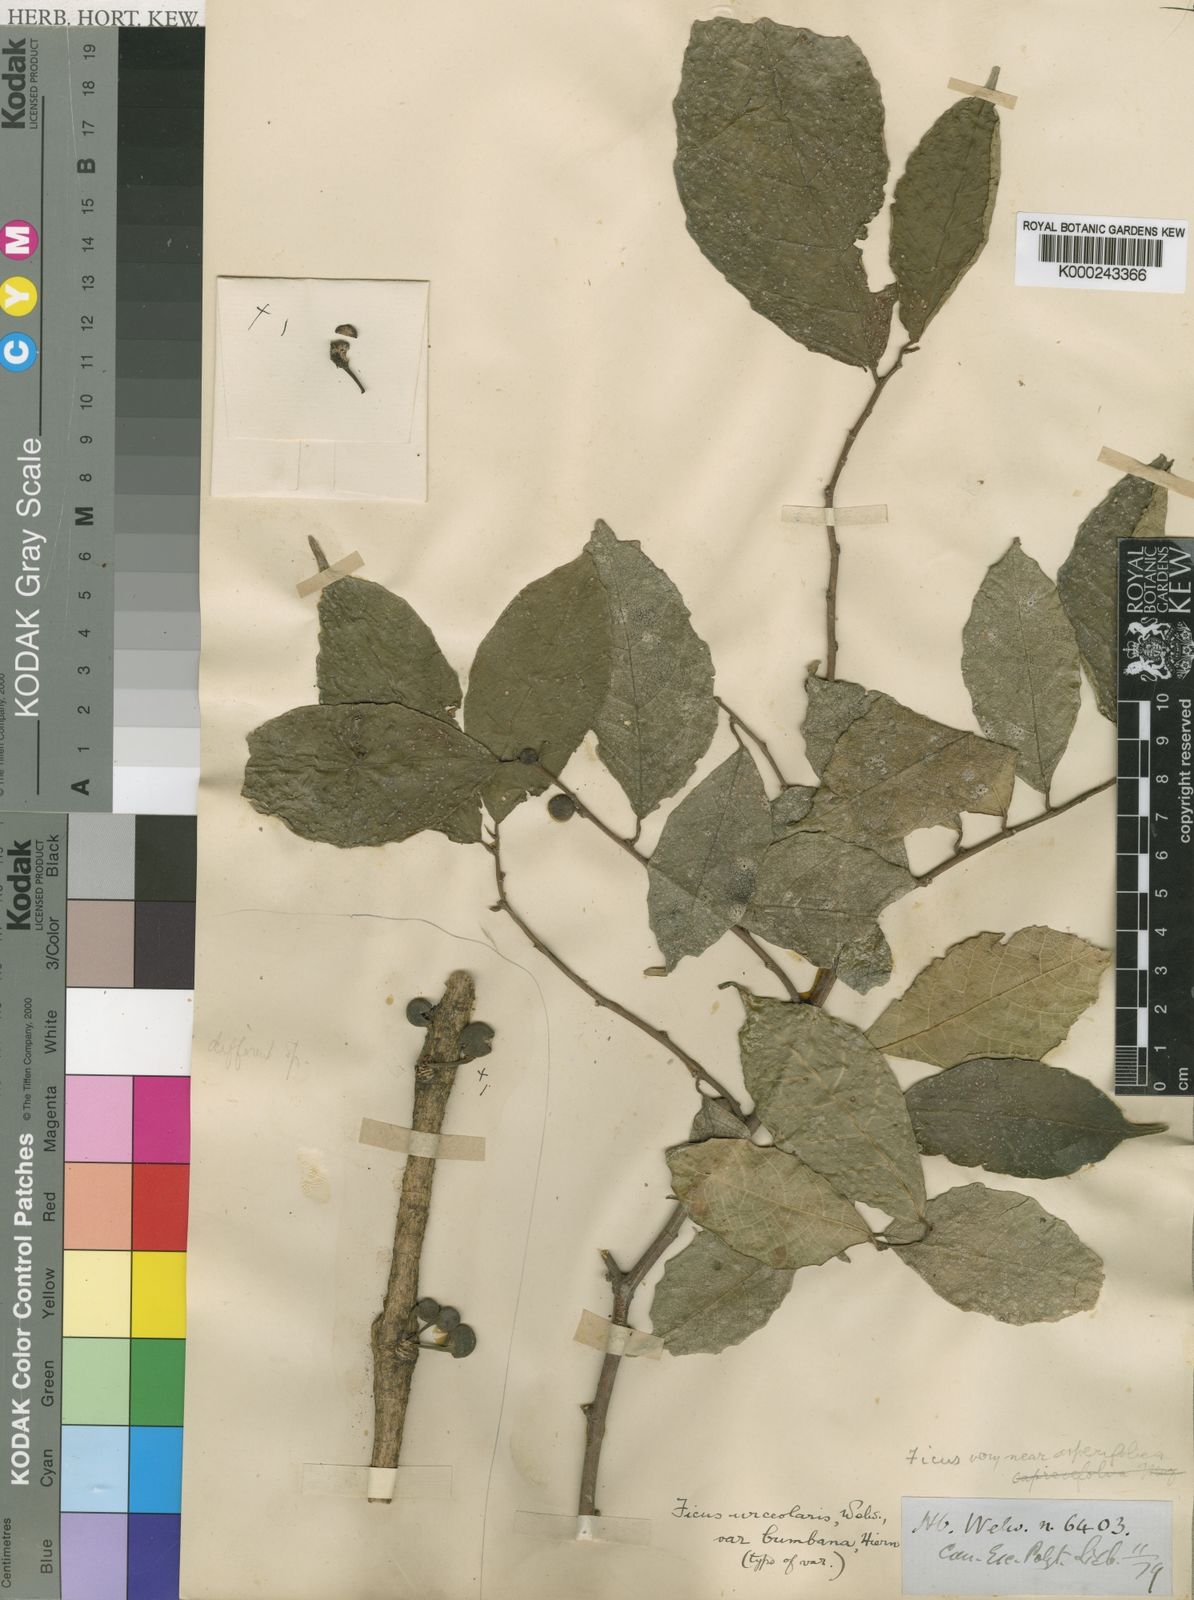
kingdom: Plantae
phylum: Tracheophyta
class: Magnoliopsida
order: Rosales
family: Moraceae
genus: Ficus
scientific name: Ficus asperifolia
